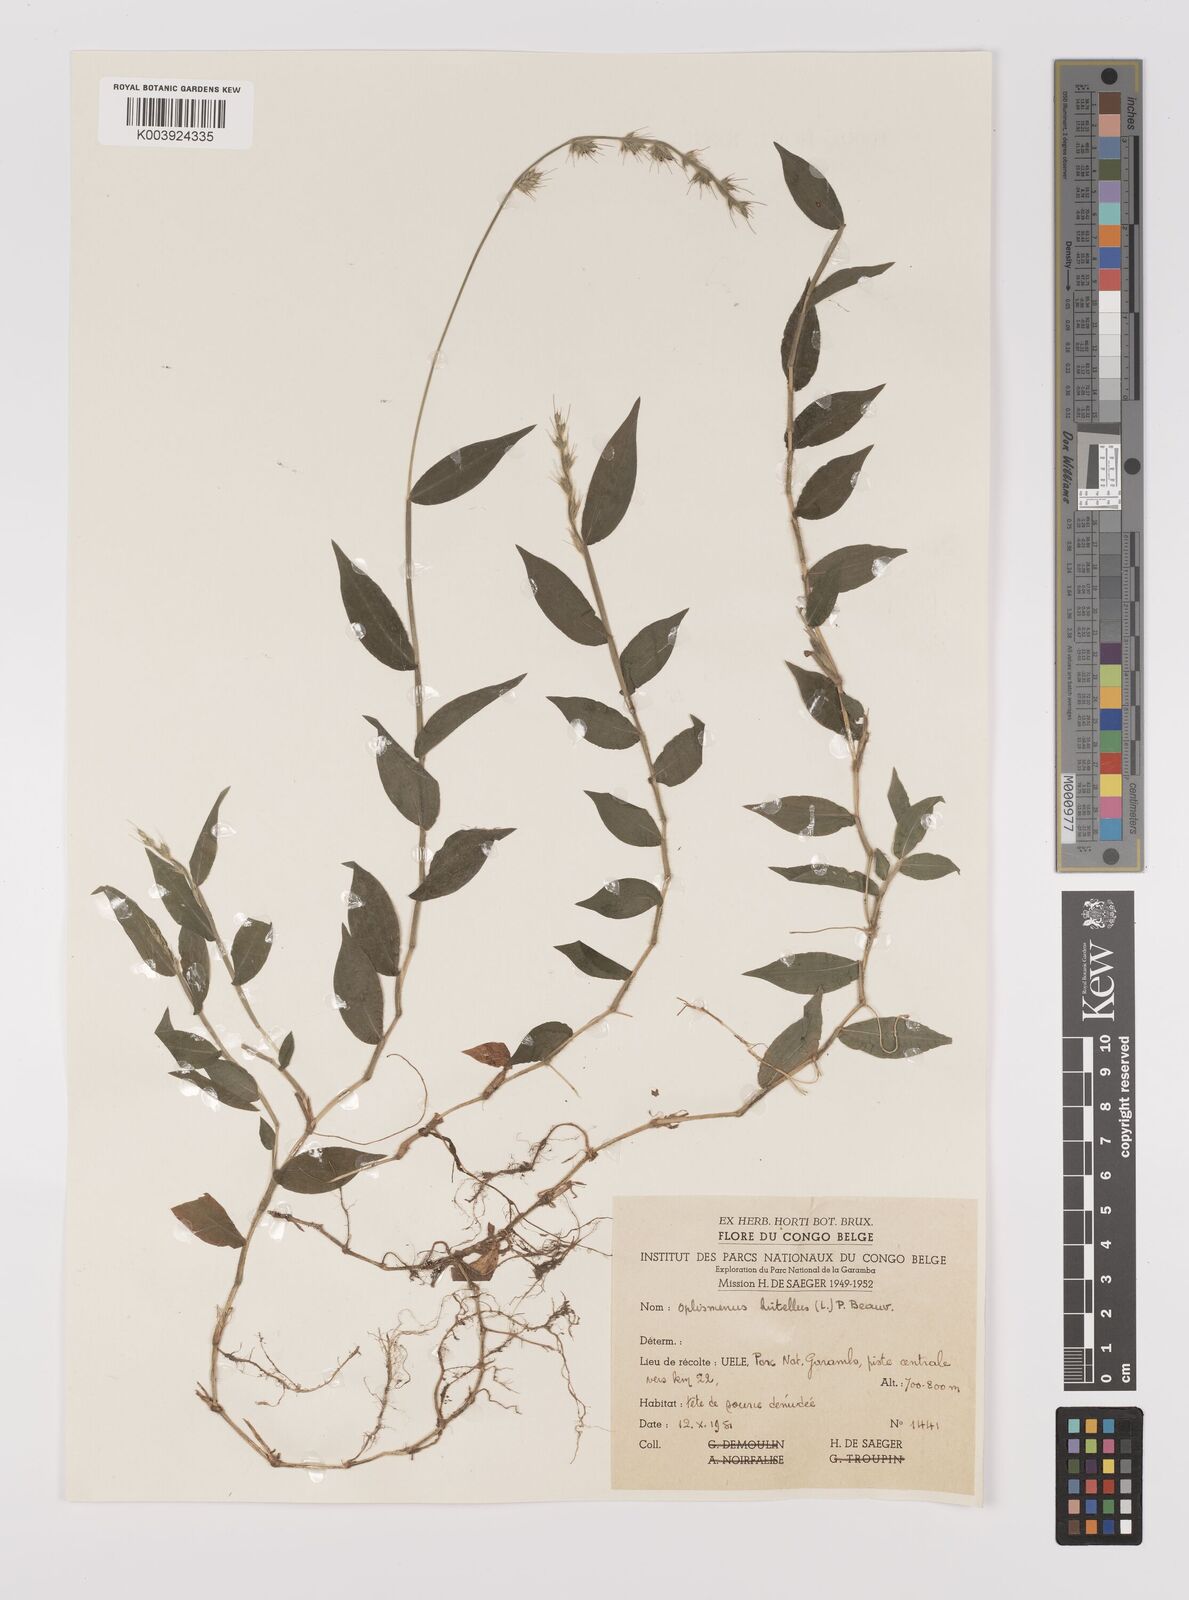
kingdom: Plantae
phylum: Tracheophyta
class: Liliopsida
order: Poales
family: Poaceae
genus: Oplismenus
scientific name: Oplismenus hirtellus
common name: Basketgrass
